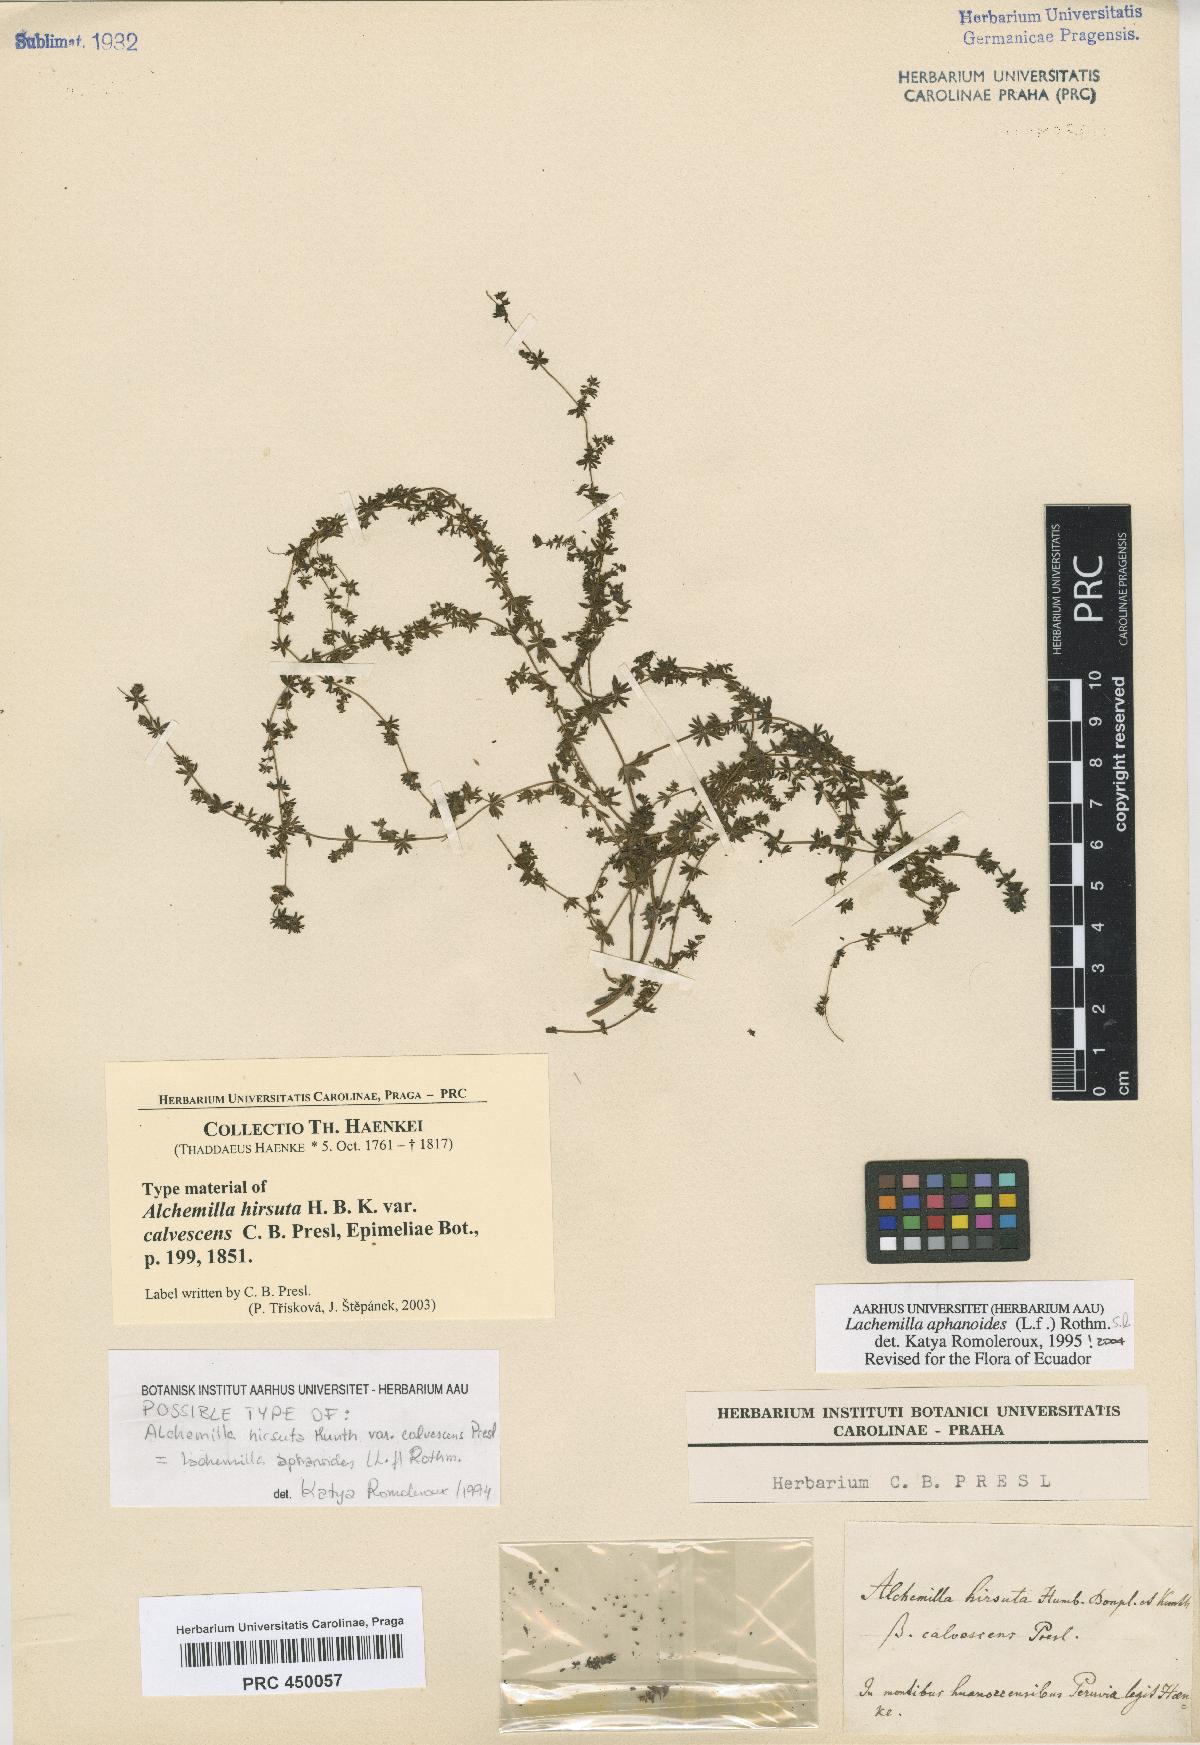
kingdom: Plantae
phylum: Tracheophyta
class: Magnoliopsida
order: Rosales
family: Rosaceae
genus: Lachemilla
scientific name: Lachemilla aphanoides
